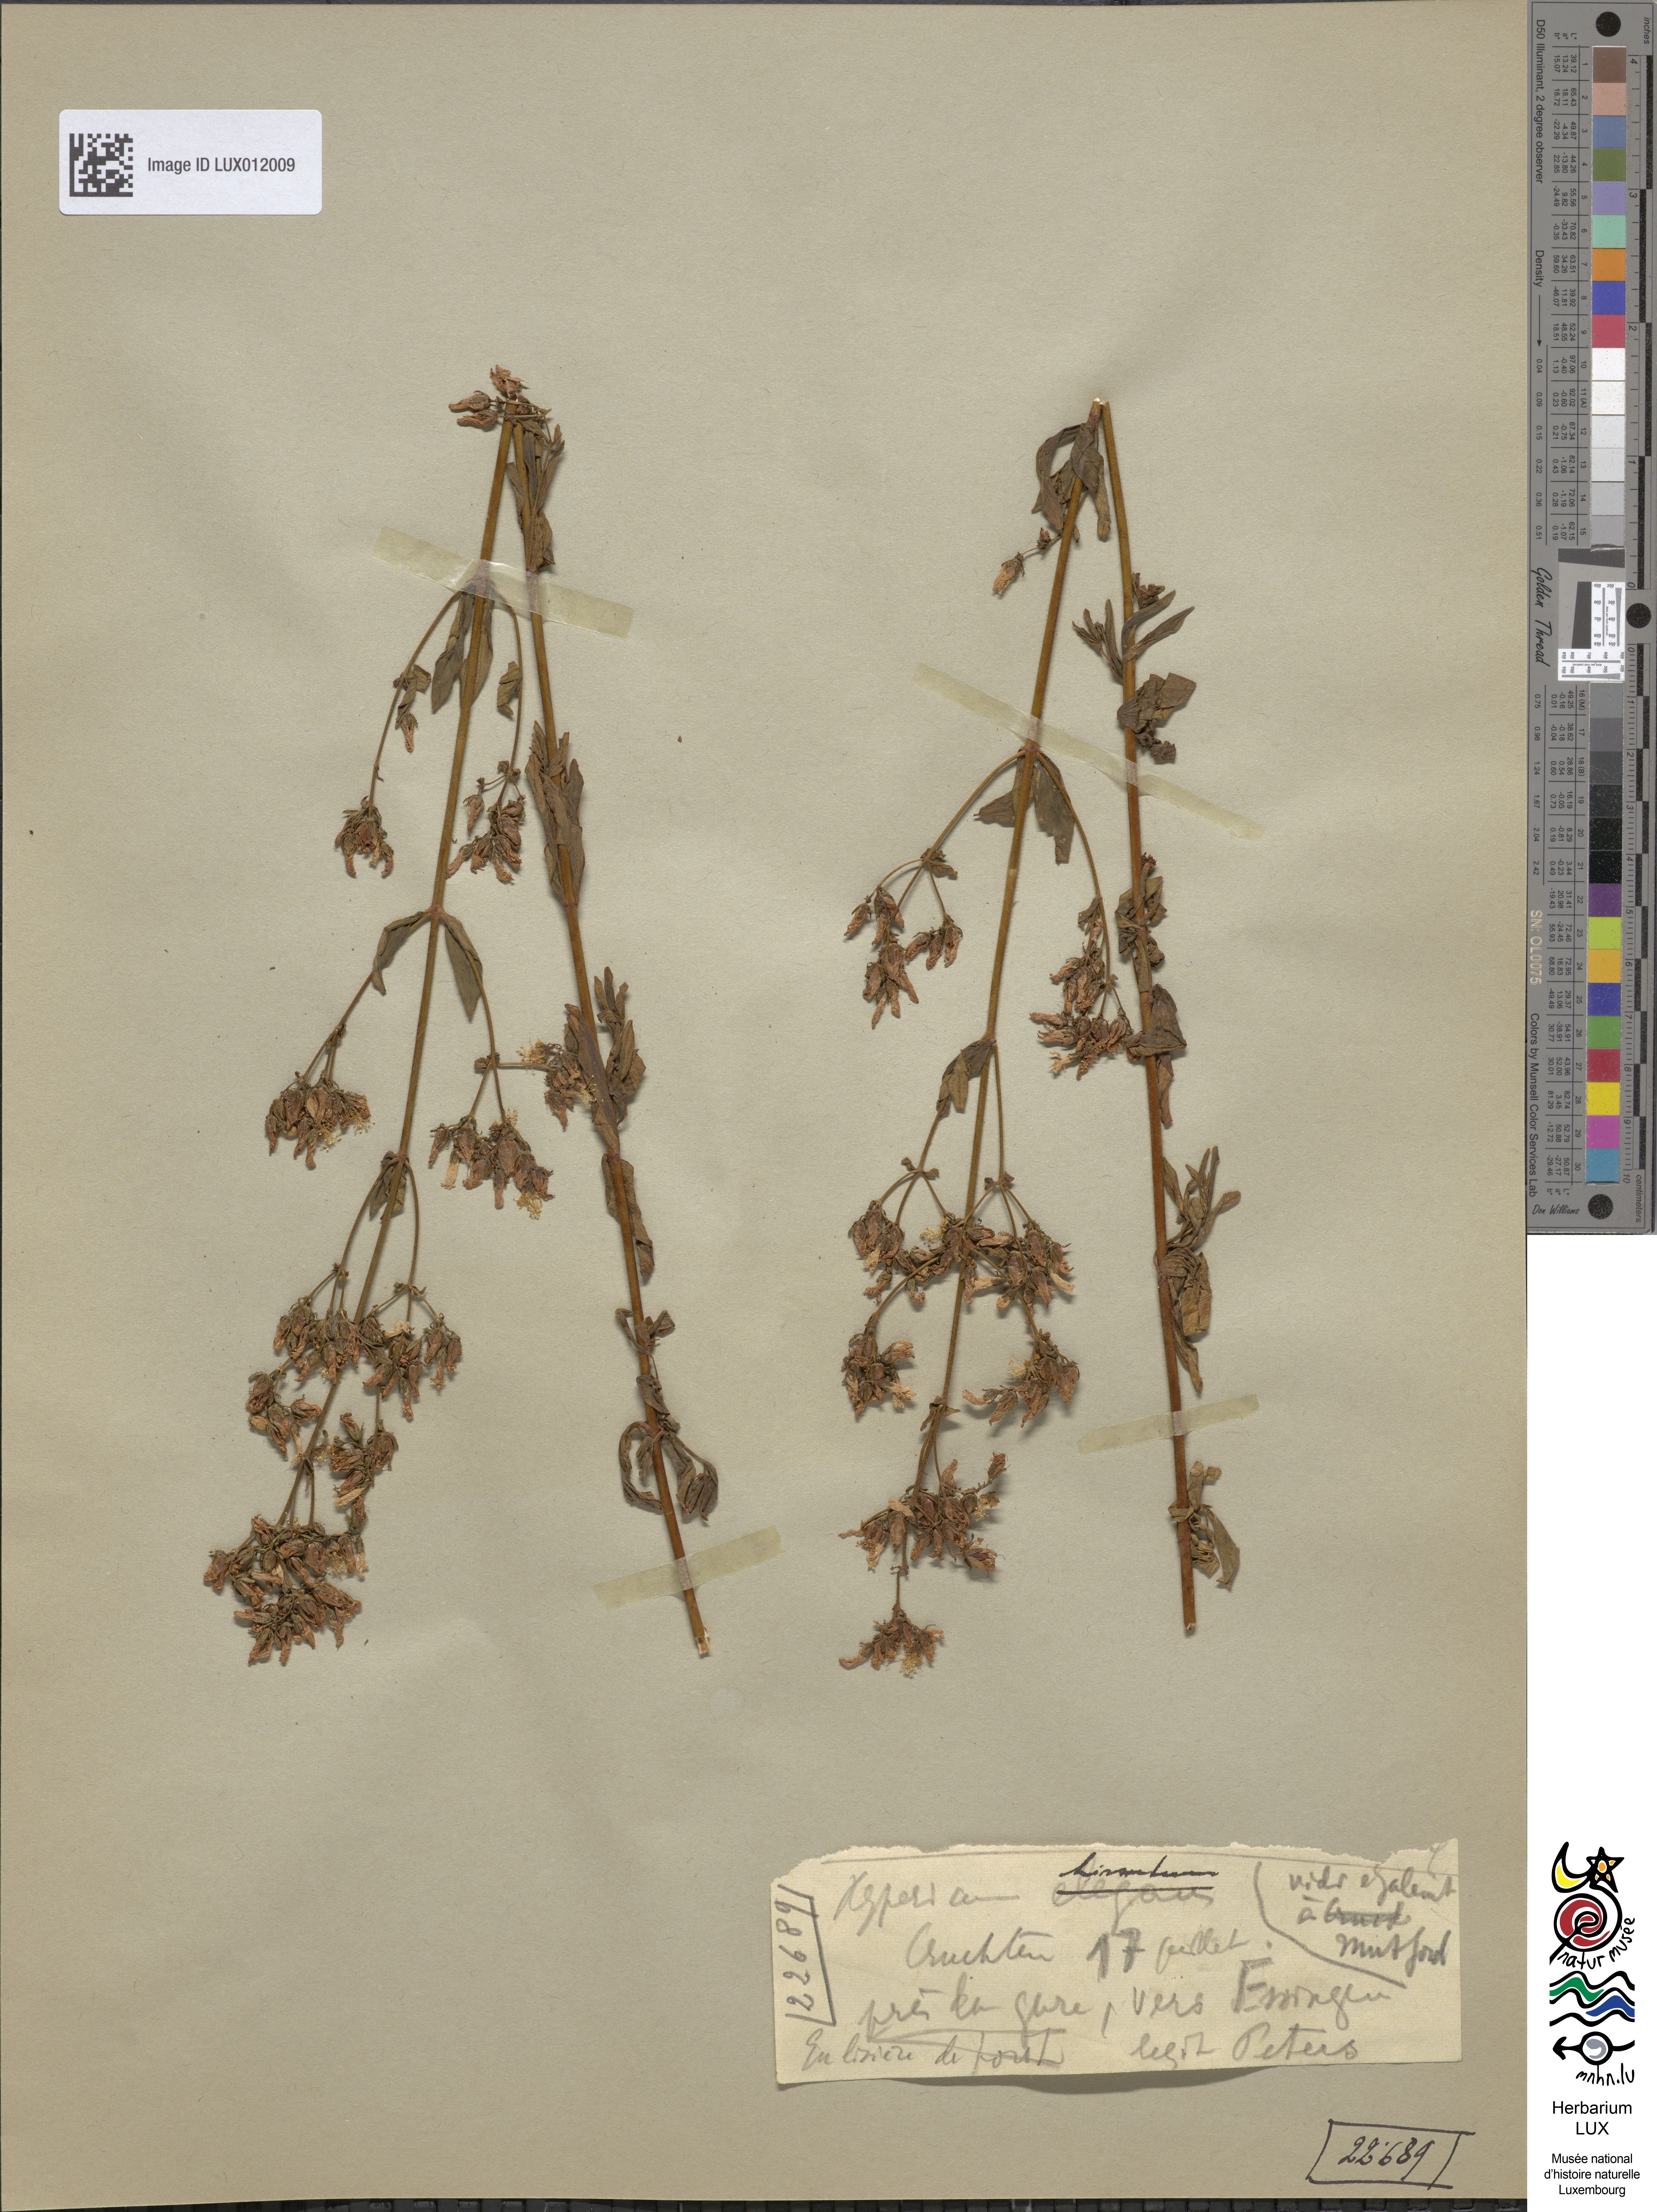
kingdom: Plantae
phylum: Tracheophyta
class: Magnoliopsida
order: Malpighiales
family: Hypericaceae
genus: Hypericum
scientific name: Hypericum hirsutum
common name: Hairy st. john's-wort
